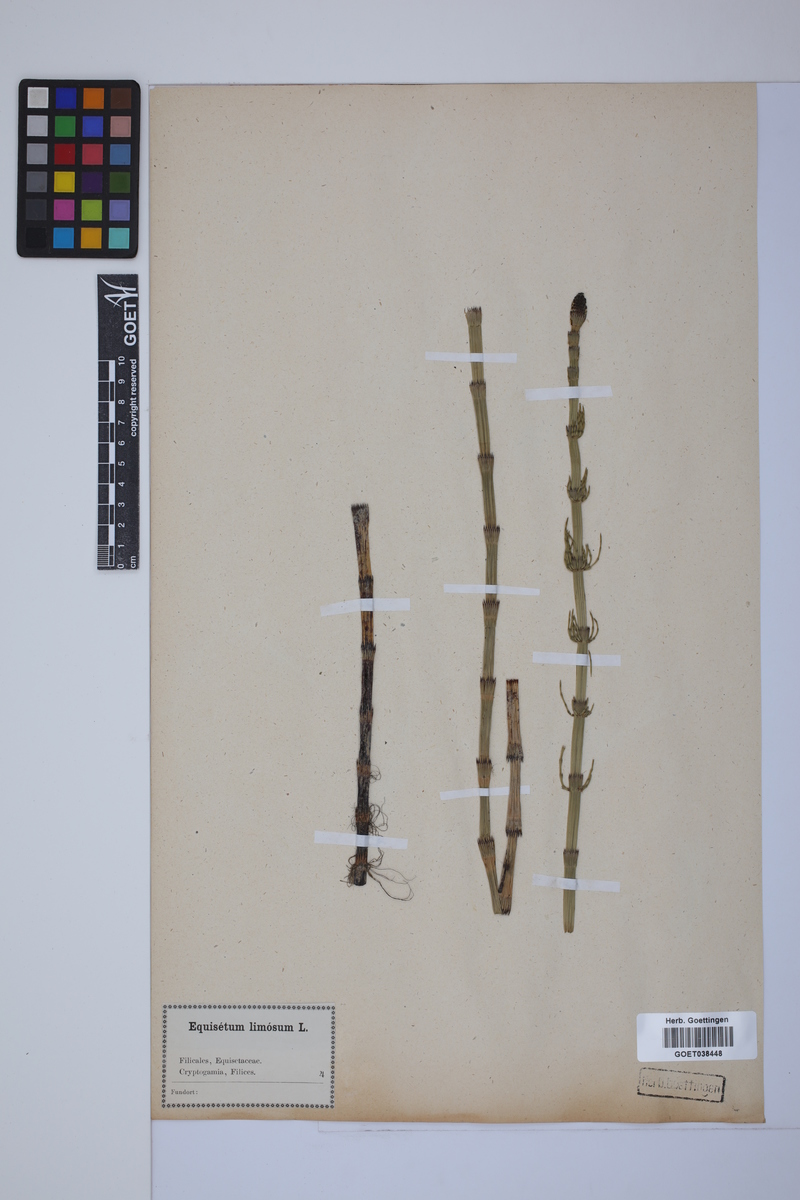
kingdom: Plantae
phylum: Tracheophyta
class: Polypodiopsida
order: Equisetales
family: Equisetaceae
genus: Equisetum
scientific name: Equisetum fluviatile
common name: Water horsetail
